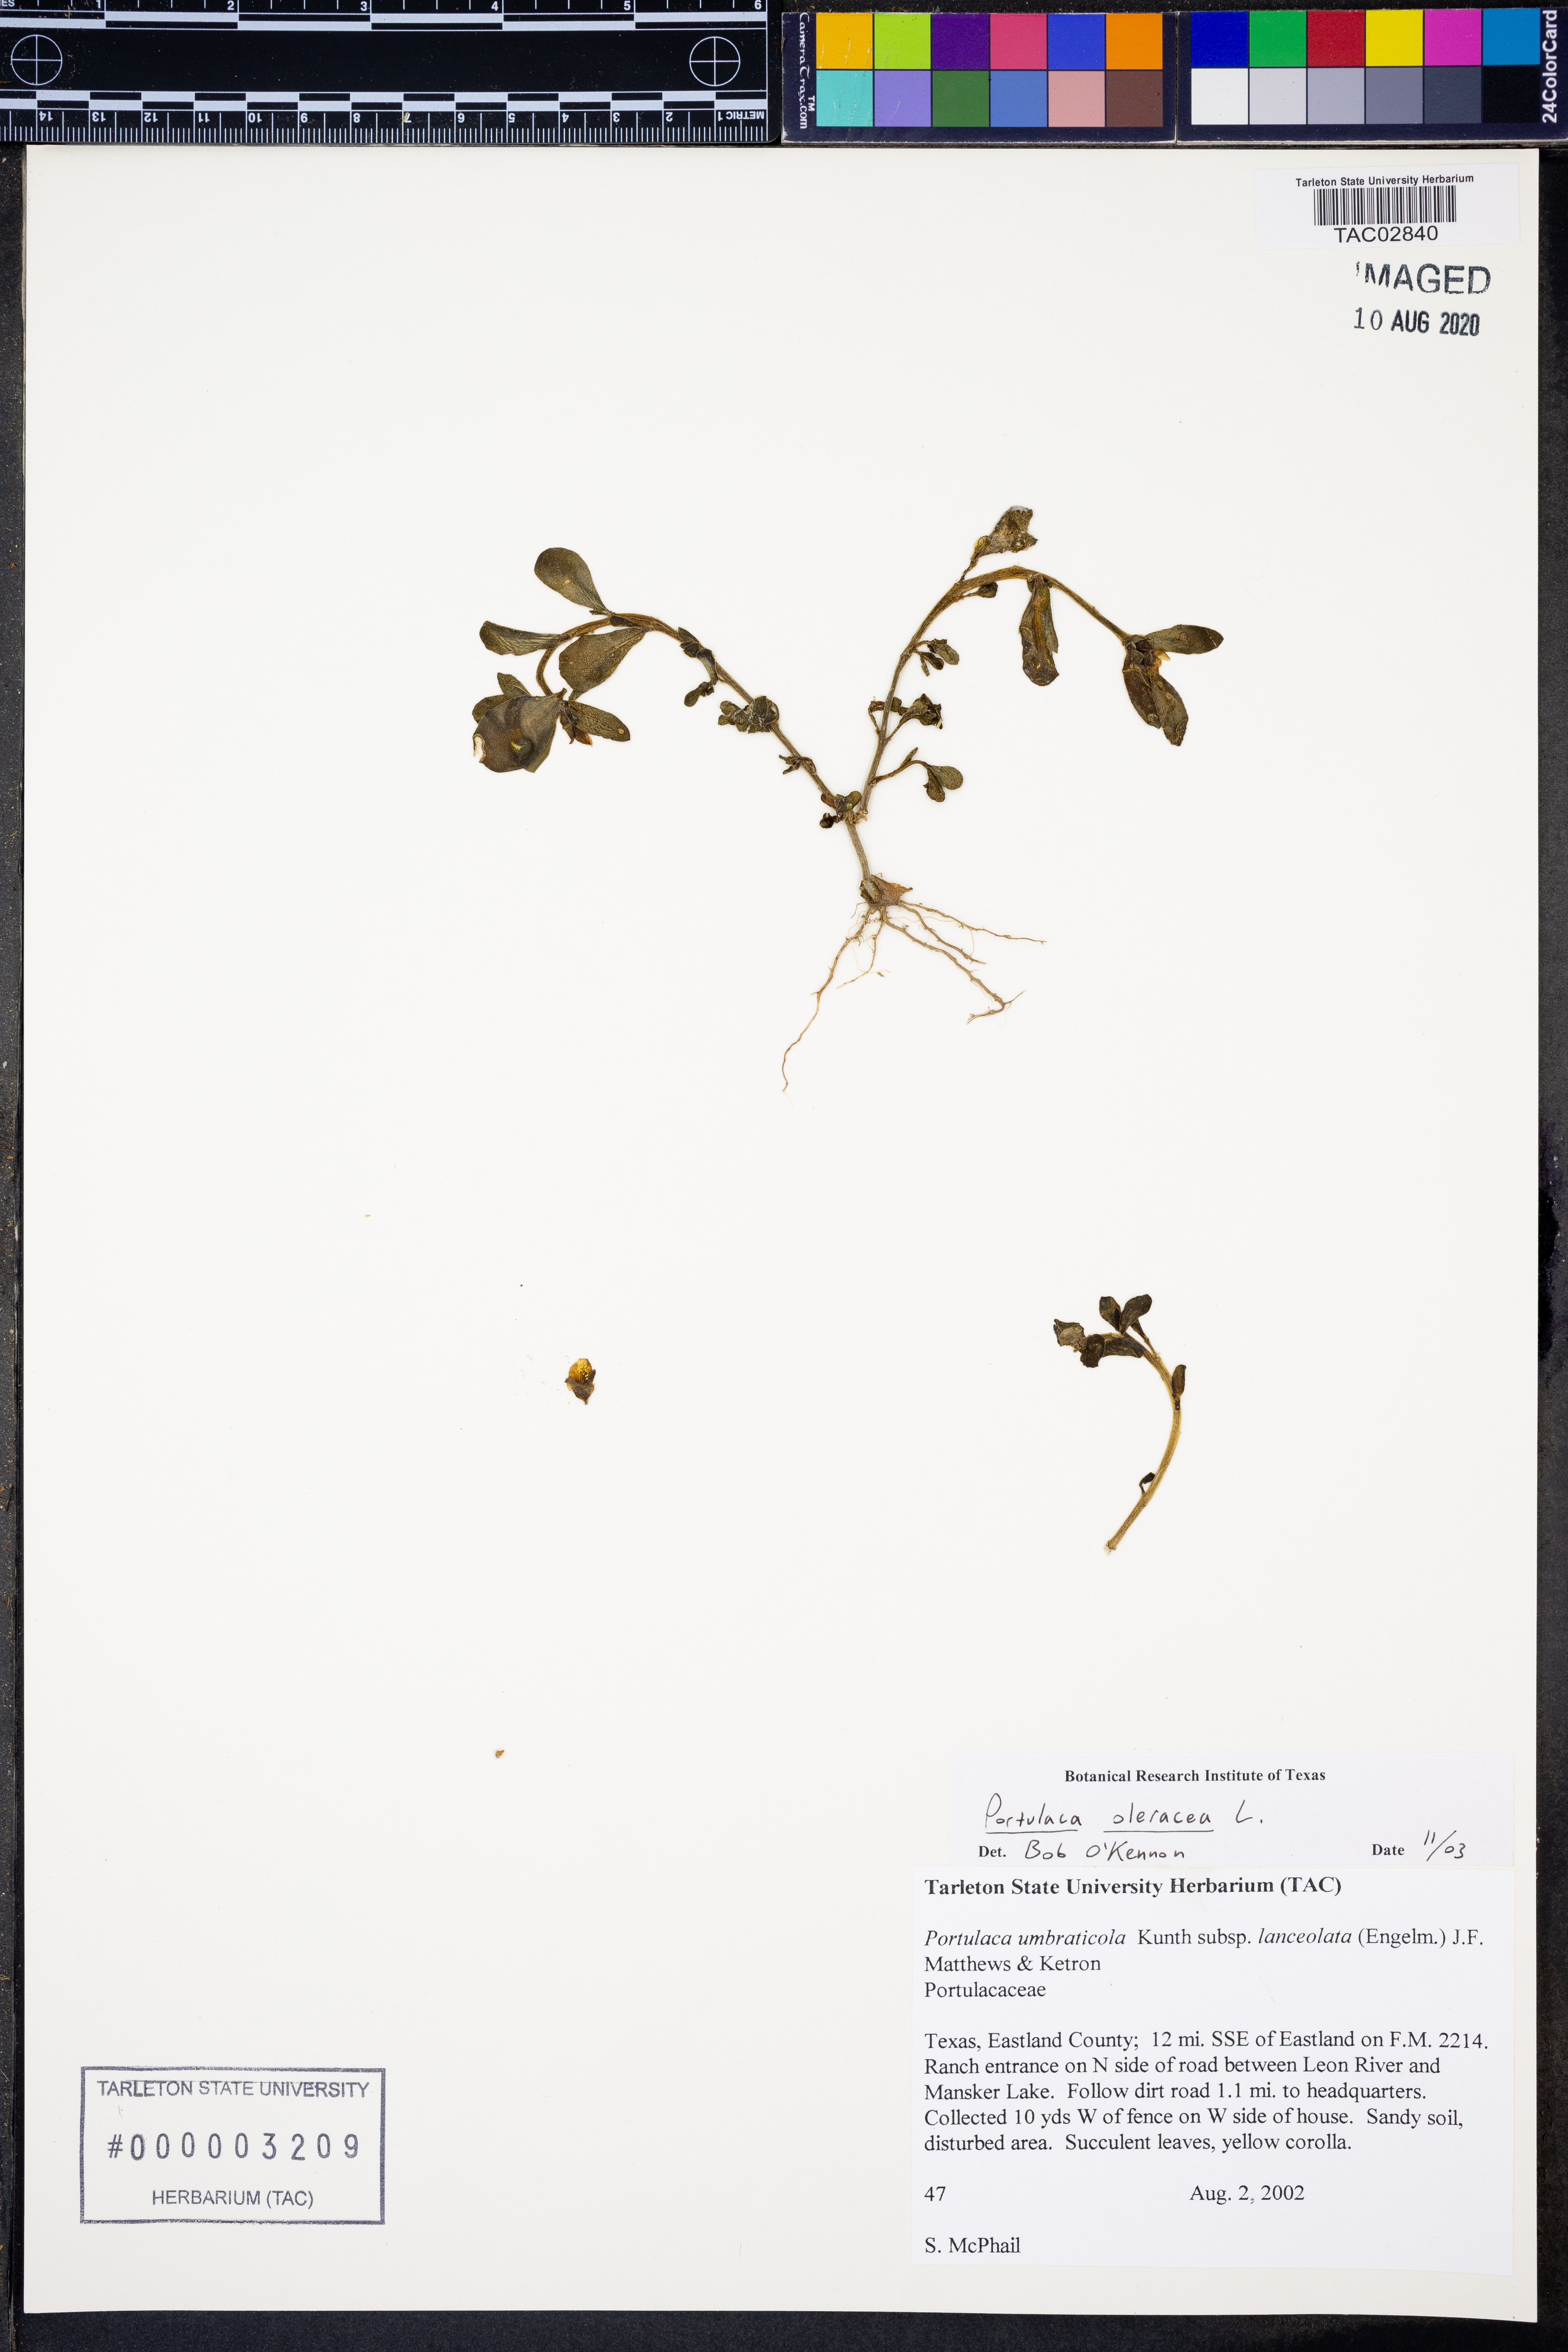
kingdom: Plantae
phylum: Tracheophyta
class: Magnoliopsida
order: Caryophyllales
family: Portulacaceae
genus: Portulaca
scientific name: Portulaca oleracea
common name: Common purslane
